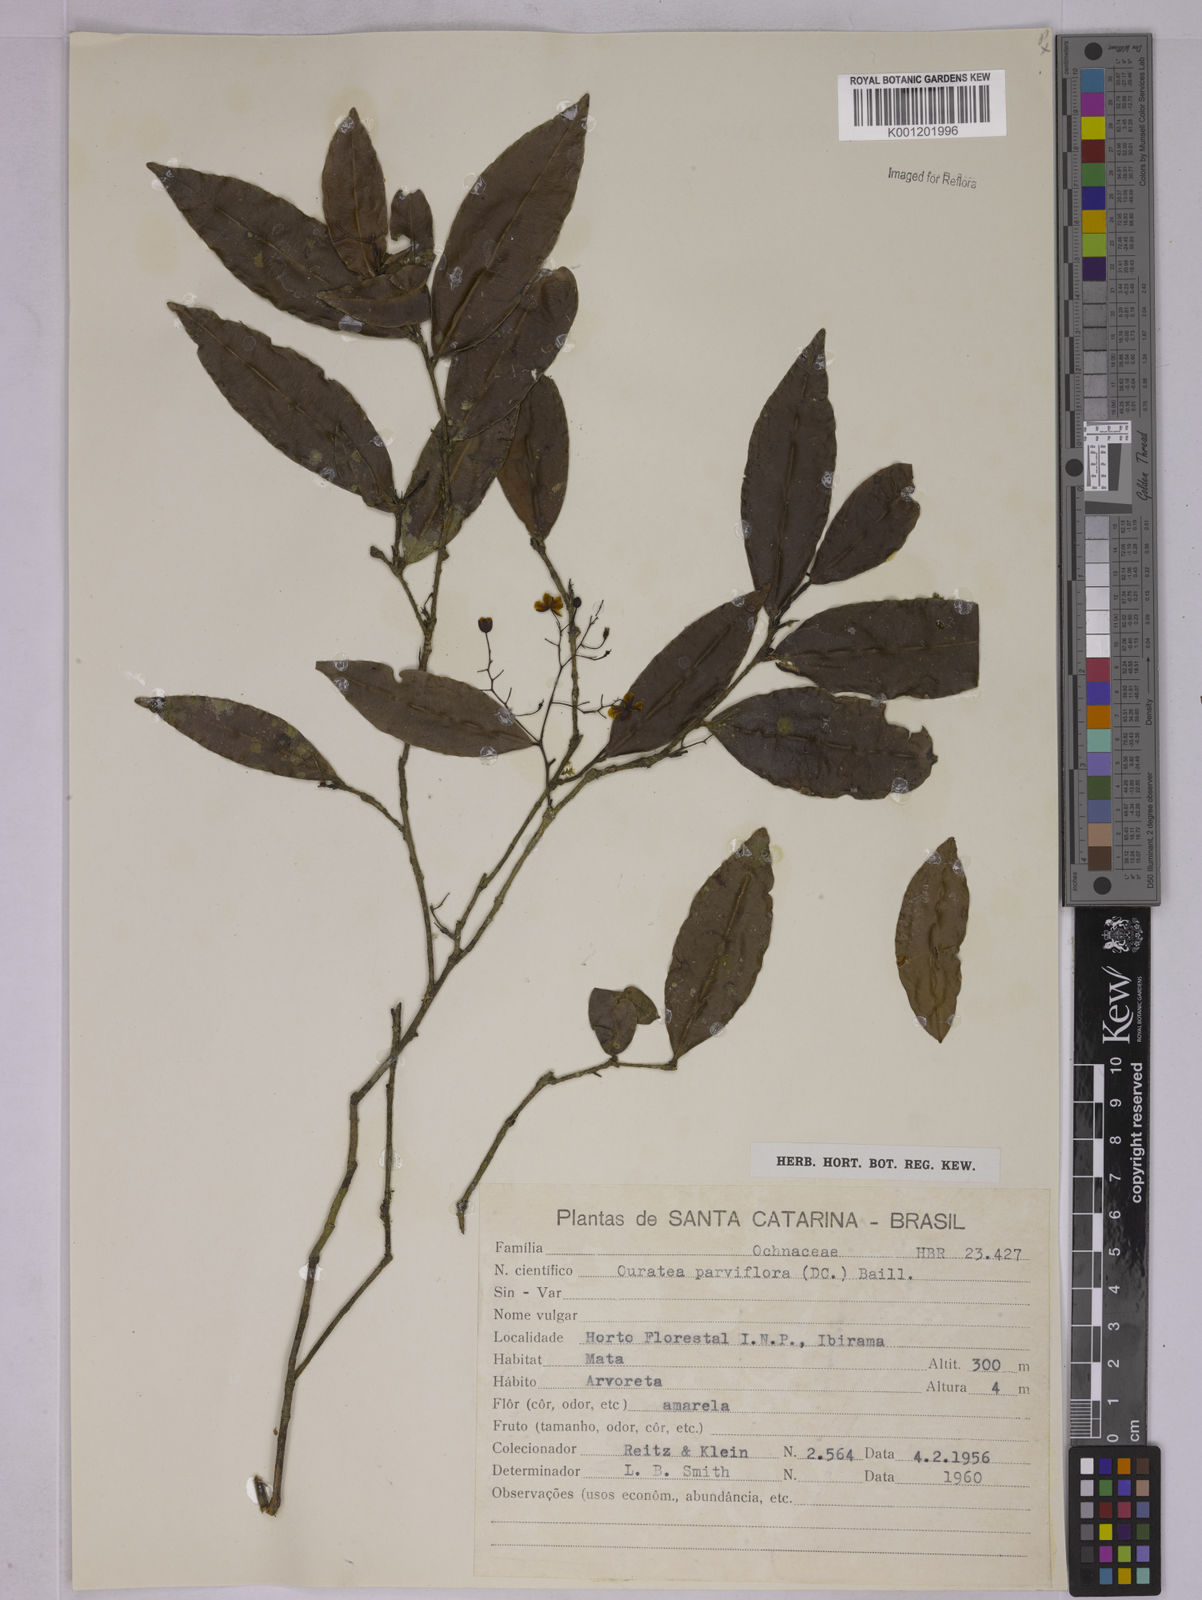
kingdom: Plantae
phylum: Tracheophyta
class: Magnoliopsida
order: Malpighiales
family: Ochnaceae
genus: Ouratea
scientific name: Ouratea parviflora
